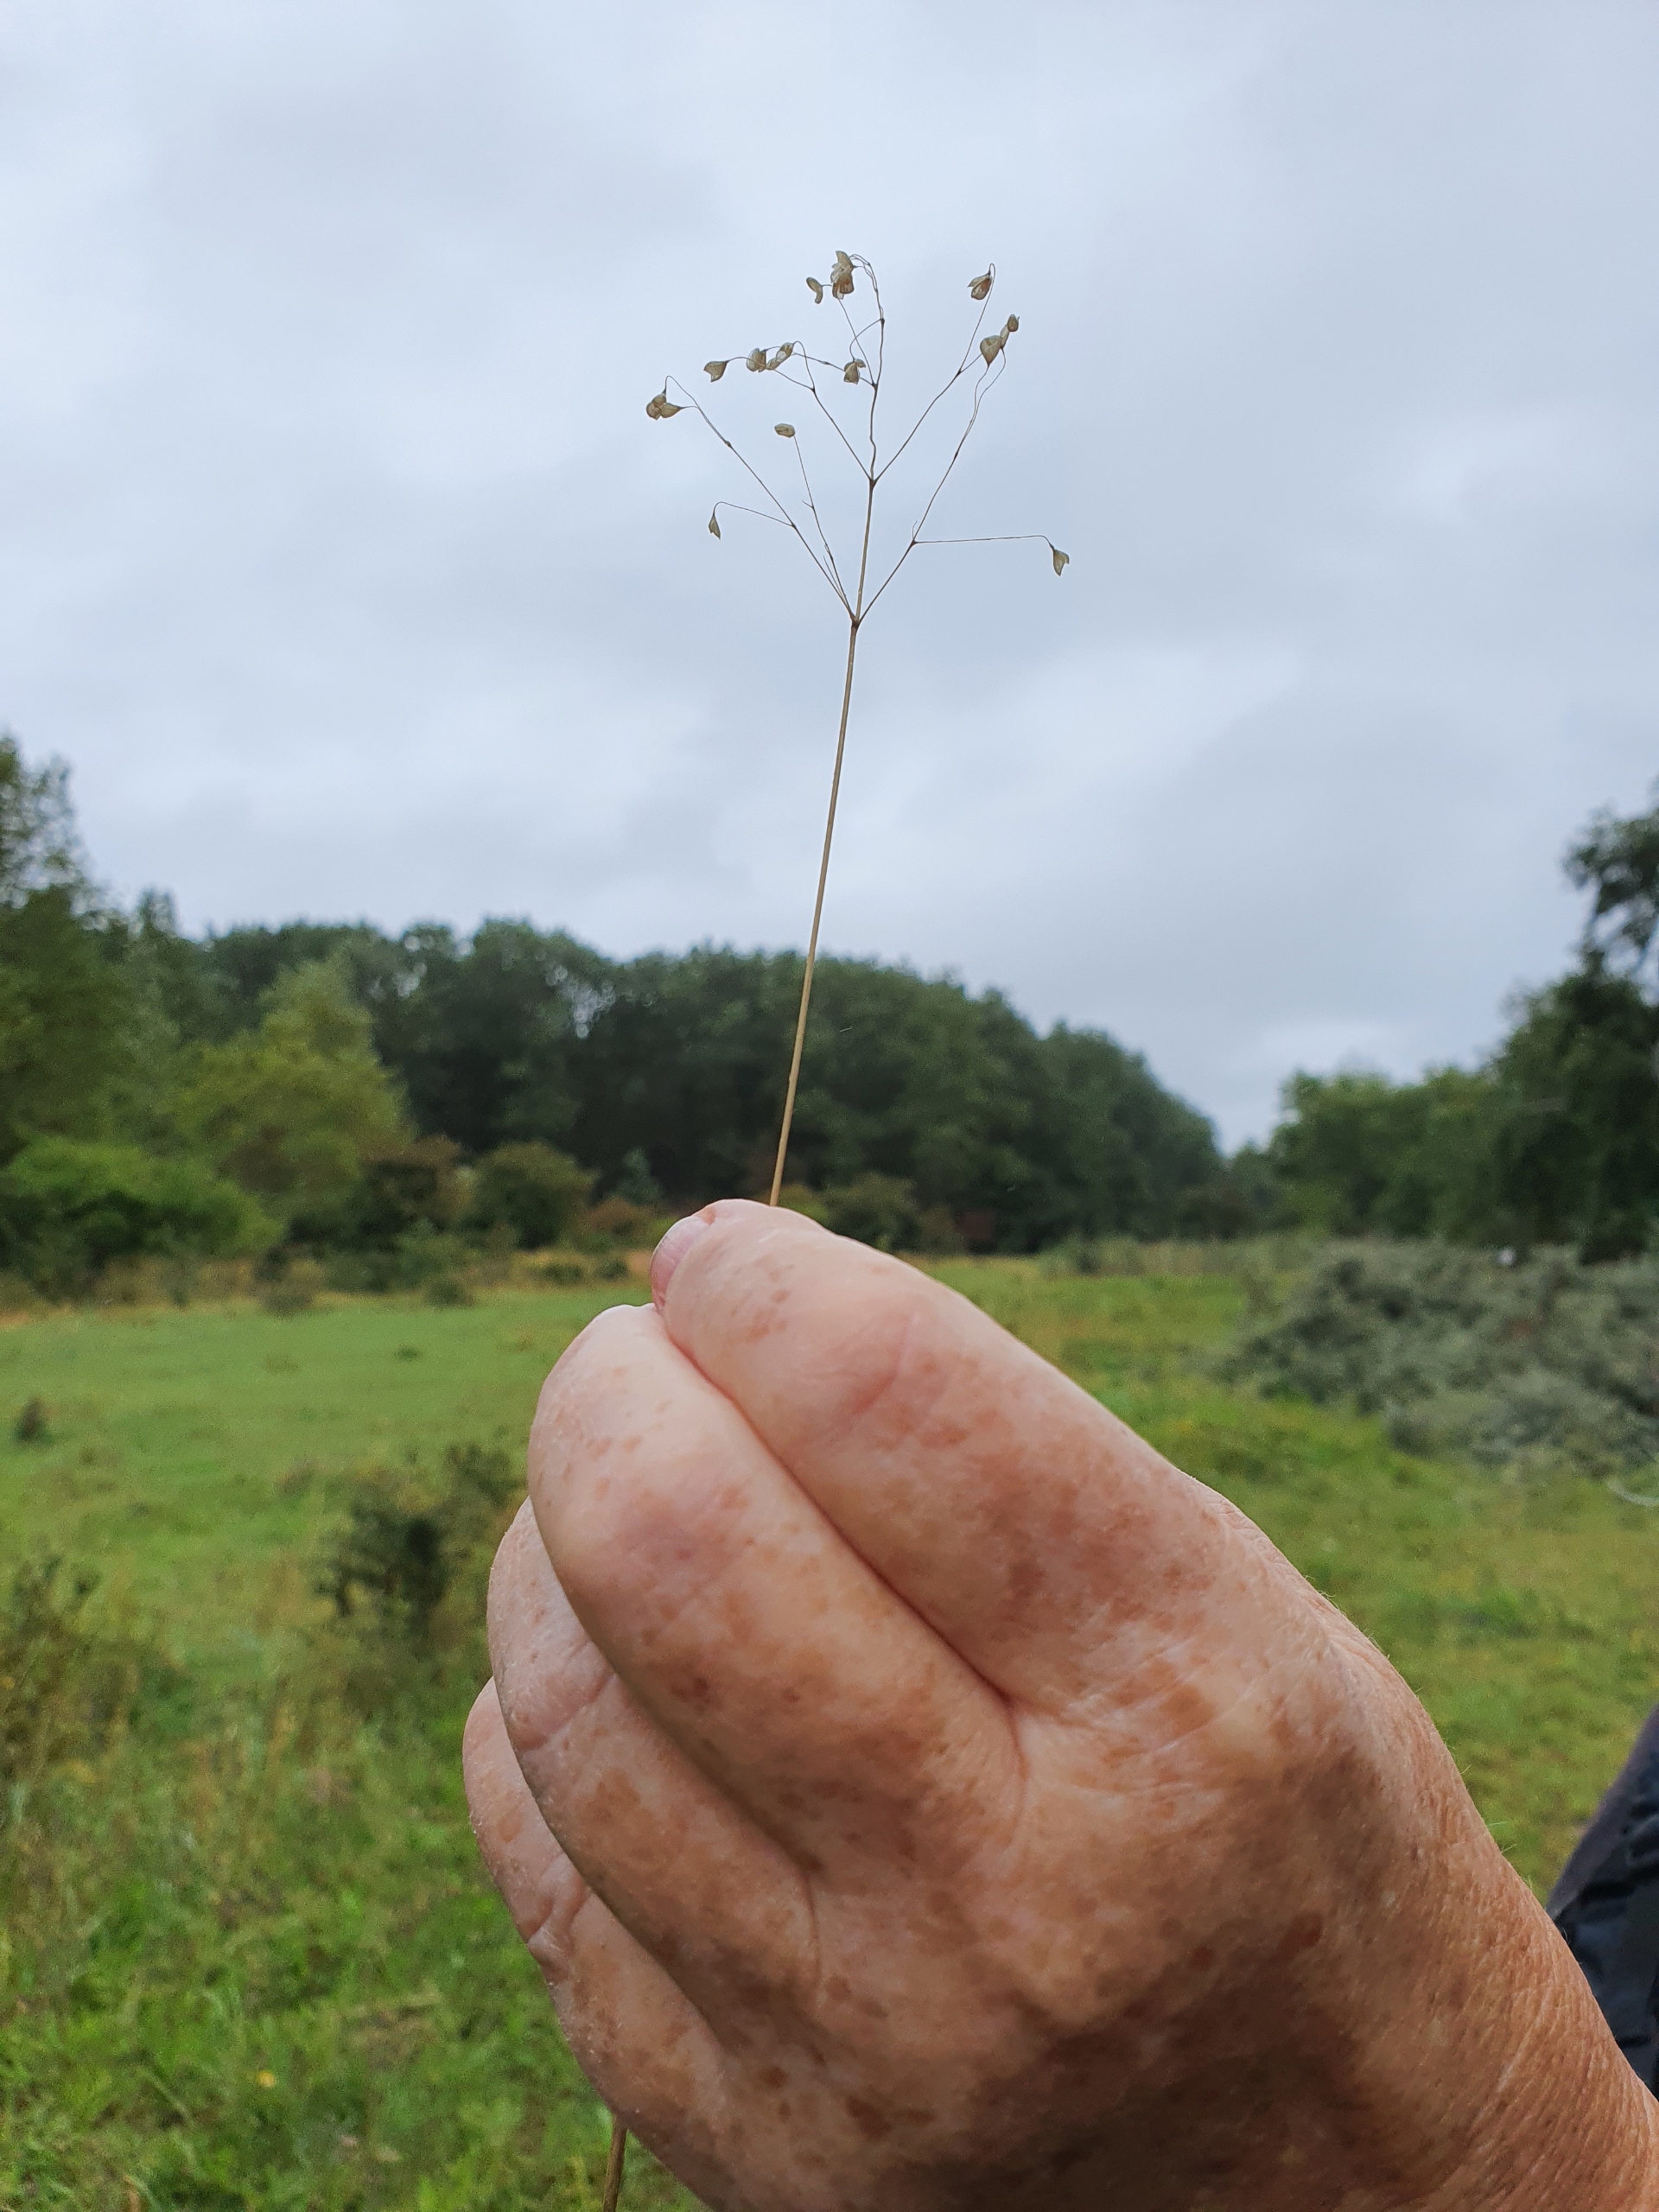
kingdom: Plantae
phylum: Tracheophyta
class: Liliopsida
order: Poales
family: Poaceae
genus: Briza
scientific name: Briza media
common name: Hjertegræs
